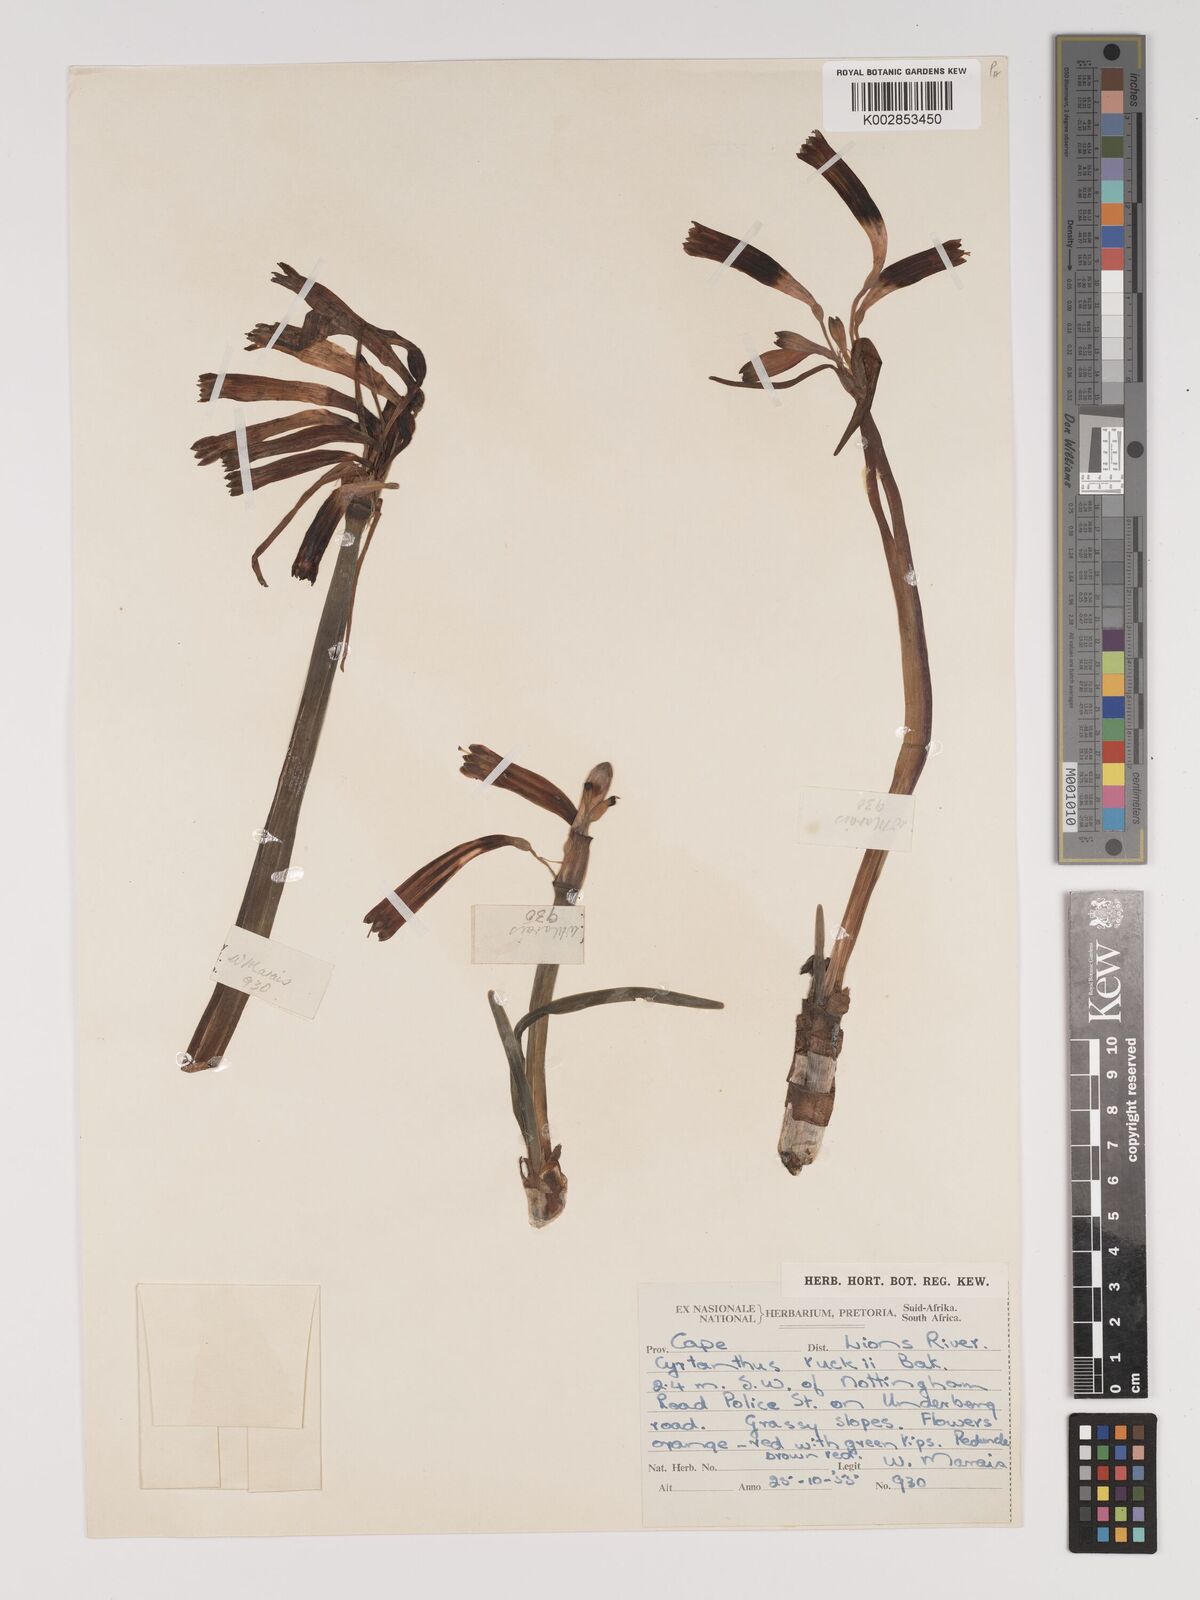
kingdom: Plantae
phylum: Tracheophyta
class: Liliopsida
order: Asparagales
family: Amaryllidaceae
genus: Cyrtanthus
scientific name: Cyrtanthus tuckii
